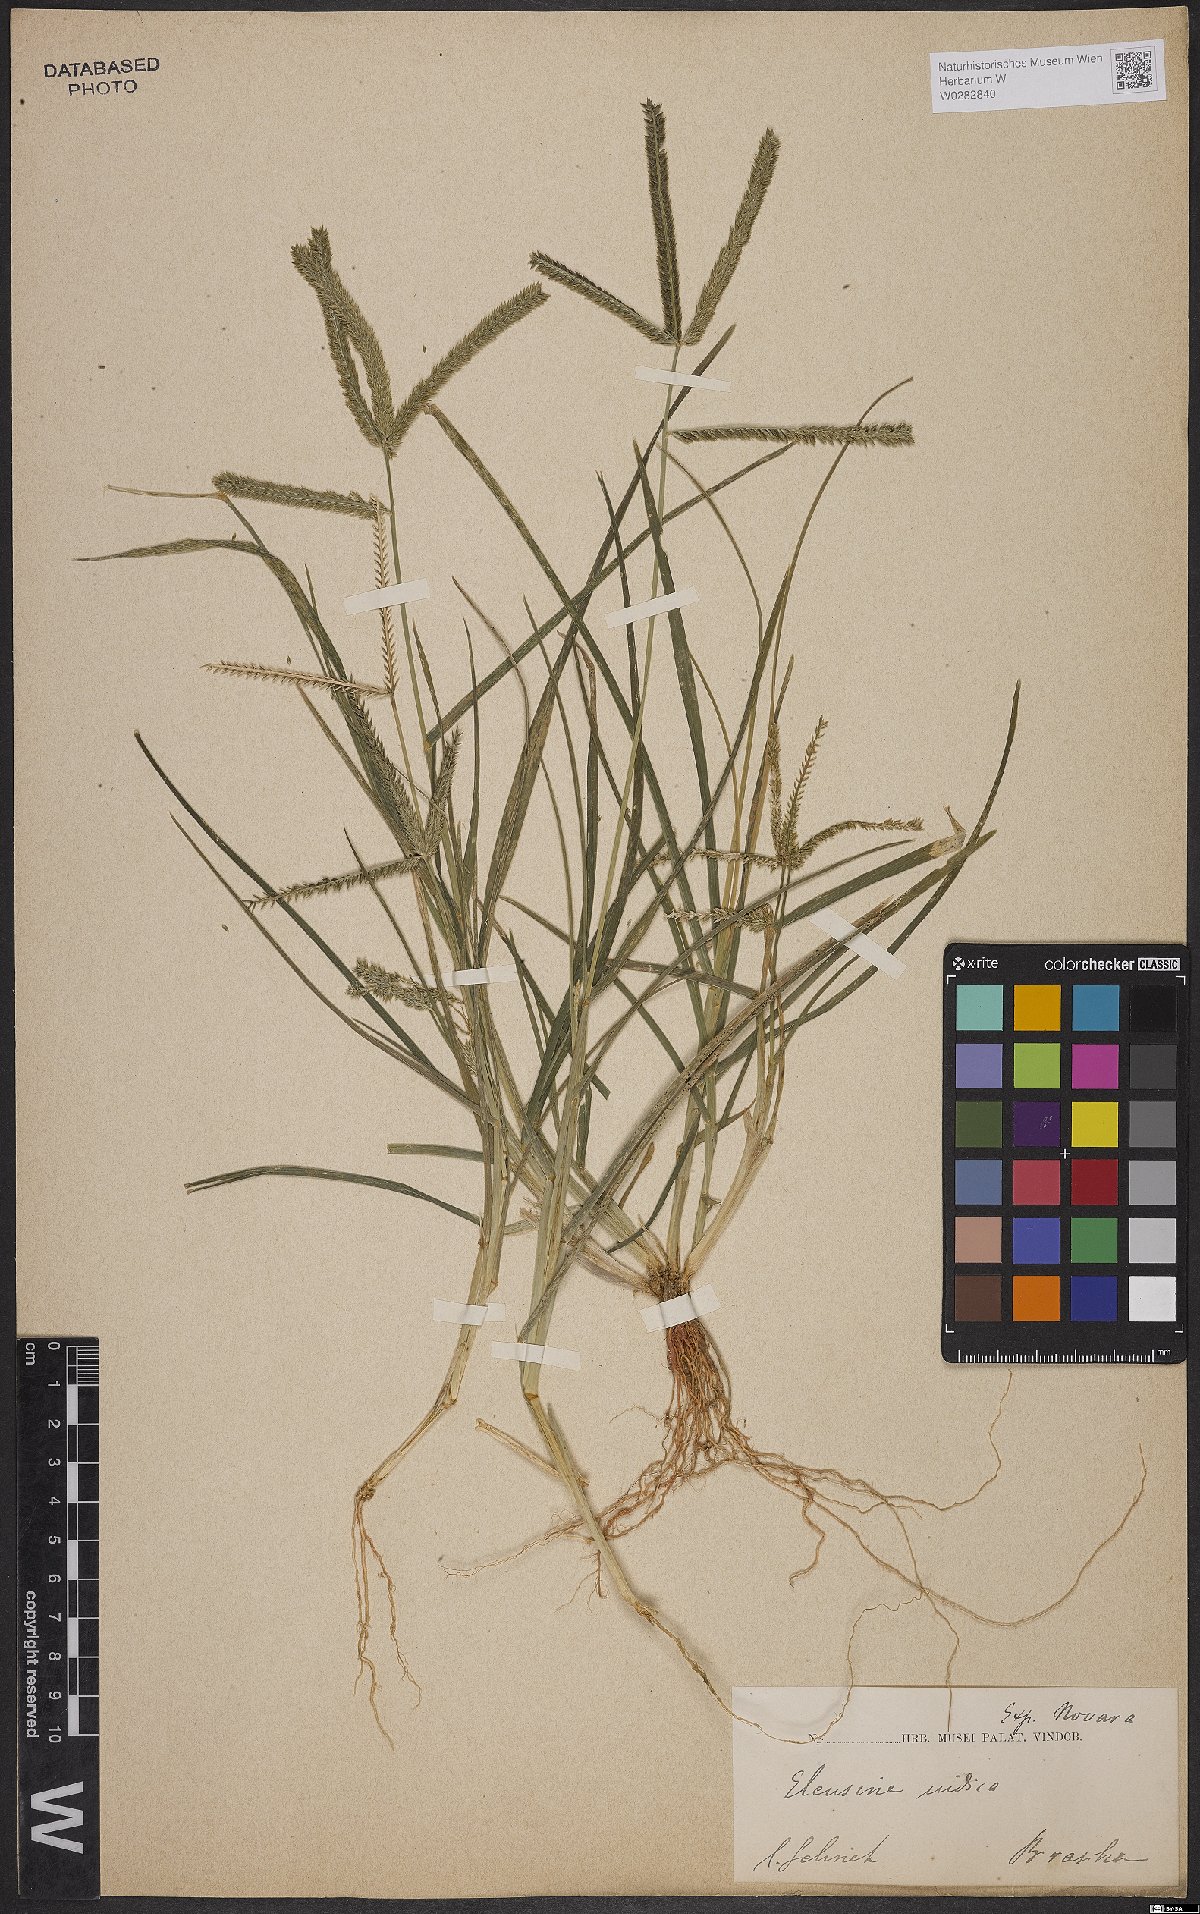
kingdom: Plantae
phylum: Tracheophyta
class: Liliopsida
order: Poales
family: Poaceae
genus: Eleusine
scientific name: Eleusine indica
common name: Yard-grass
